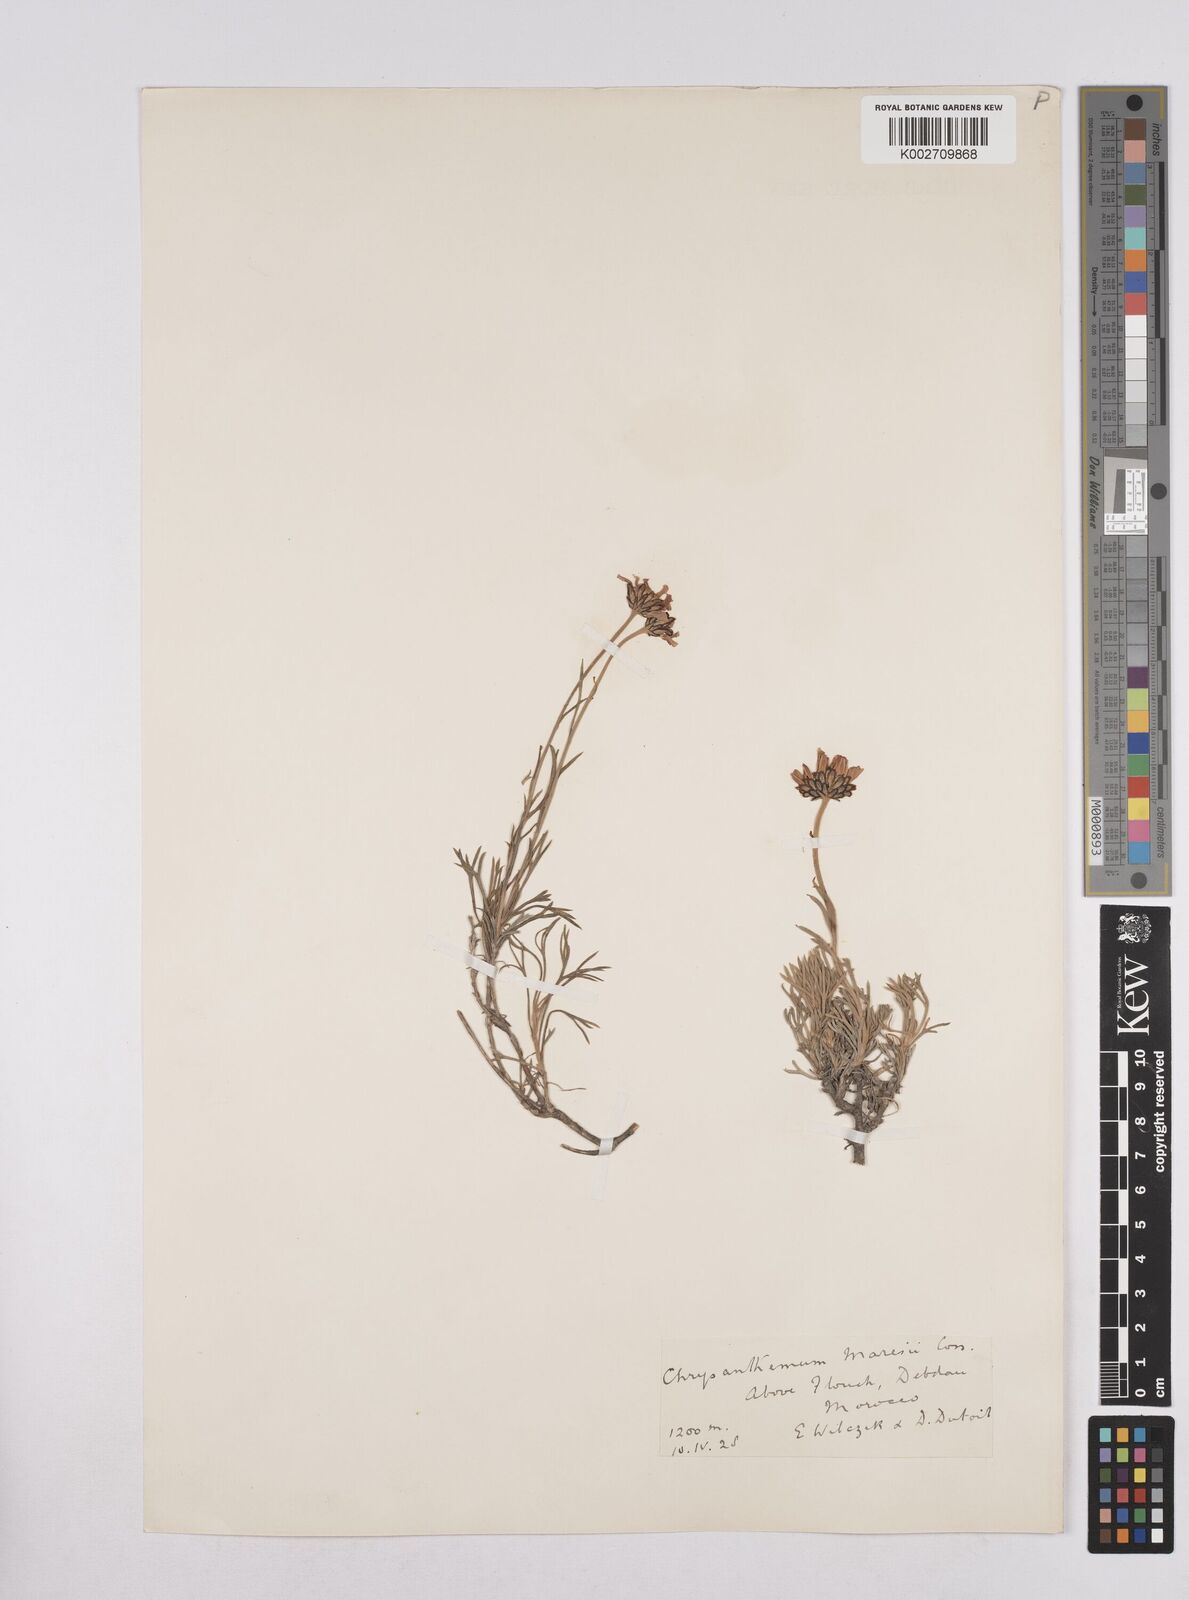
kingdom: Plantae
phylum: Tracheophyta
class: Magnoliopsida
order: Asterales
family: Asteraceae
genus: Rhodanthemum
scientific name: Rhodanthemum maresii
